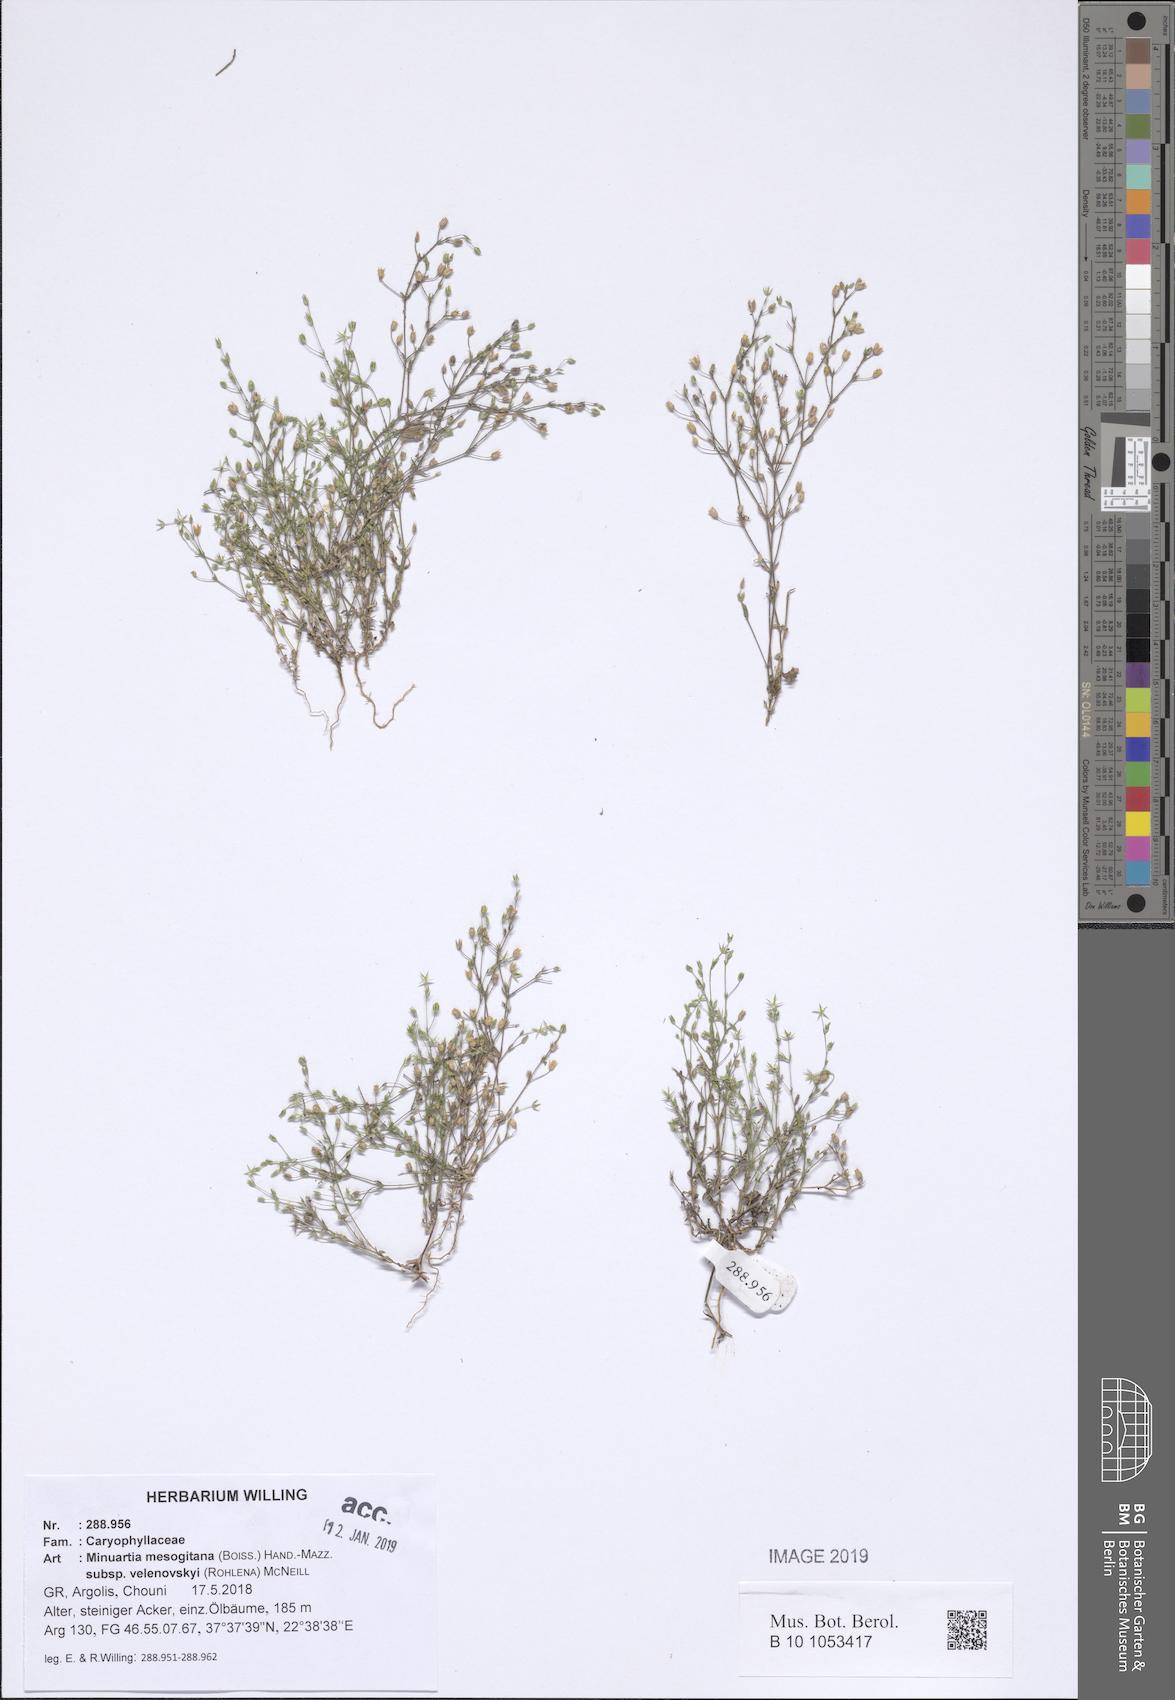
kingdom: Plantae
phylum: Tracheophyta
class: Magnoliopsida
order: Caryophyllales
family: Caryophyllaceae
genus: Sabulina
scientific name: Sabulina velenovskyi
